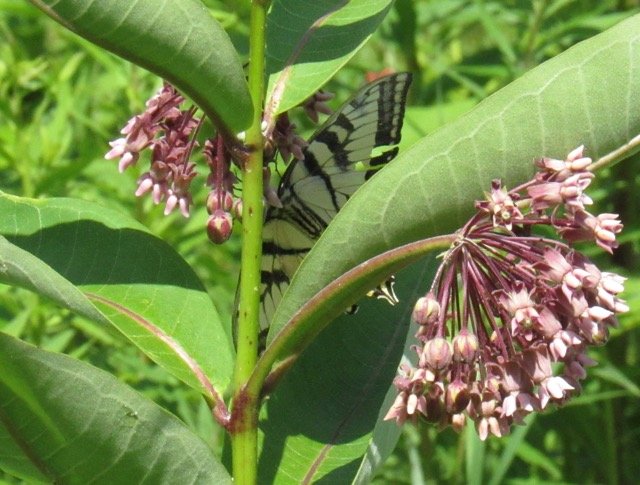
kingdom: Animalia
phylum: Arthropoda
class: Insecta
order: Lepidoptera
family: Papilionidae
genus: Pterourus
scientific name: Pterourus
